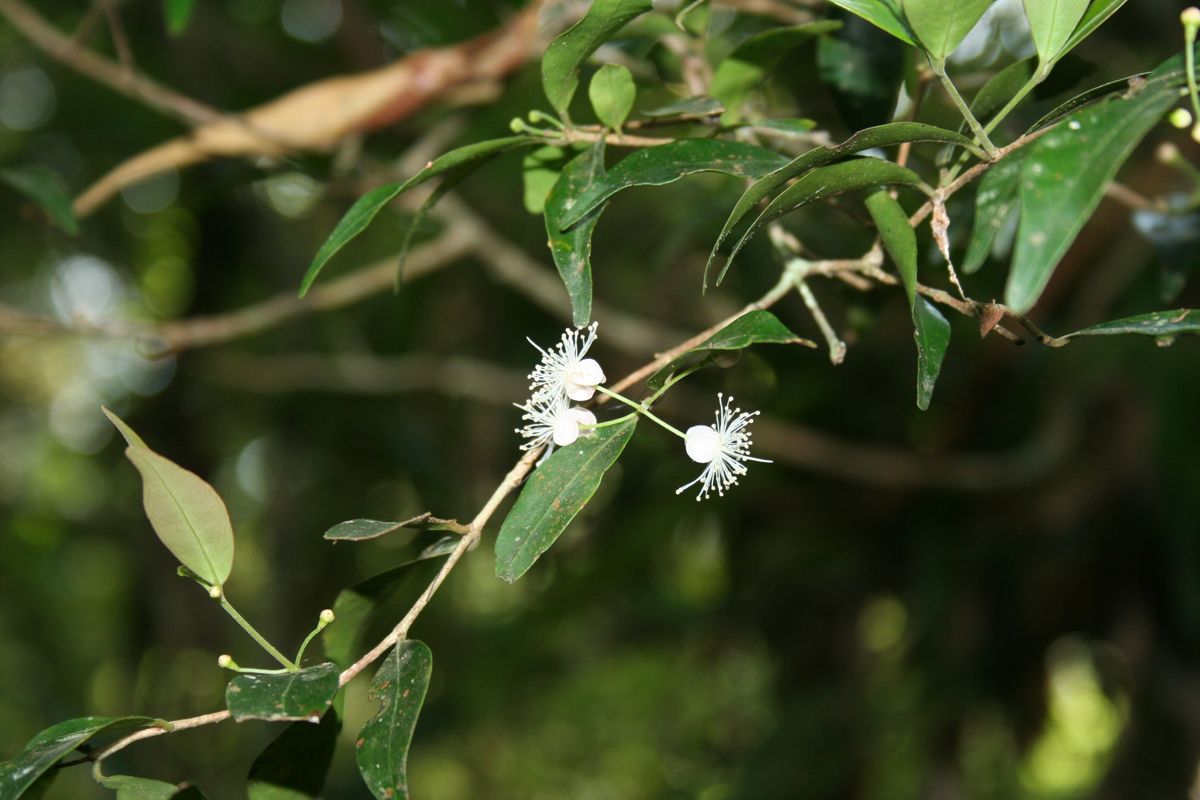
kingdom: Plantae
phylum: Tracheophyta
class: Magnoliopsida
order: Myrtales
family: Myrtaceae
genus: Eugenia
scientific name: Eugenia liesneri
